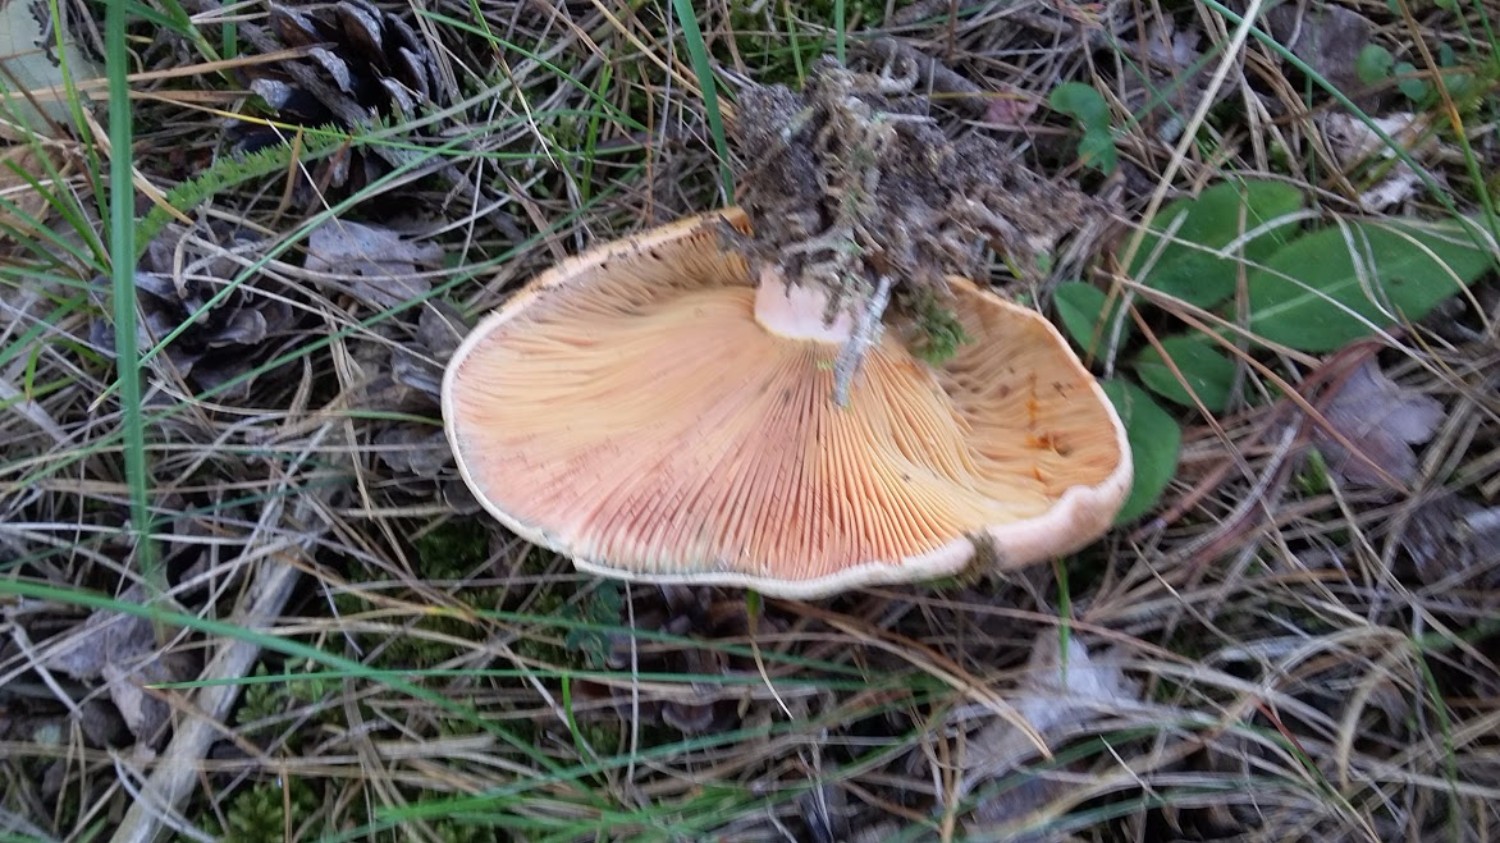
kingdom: Fungi
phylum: Basidiomycota
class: Agaricomycetes
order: Russulales
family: Russulaceae
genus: Lactarius
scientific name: Lactarius deliciosus
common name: velsmagende mælkehat
